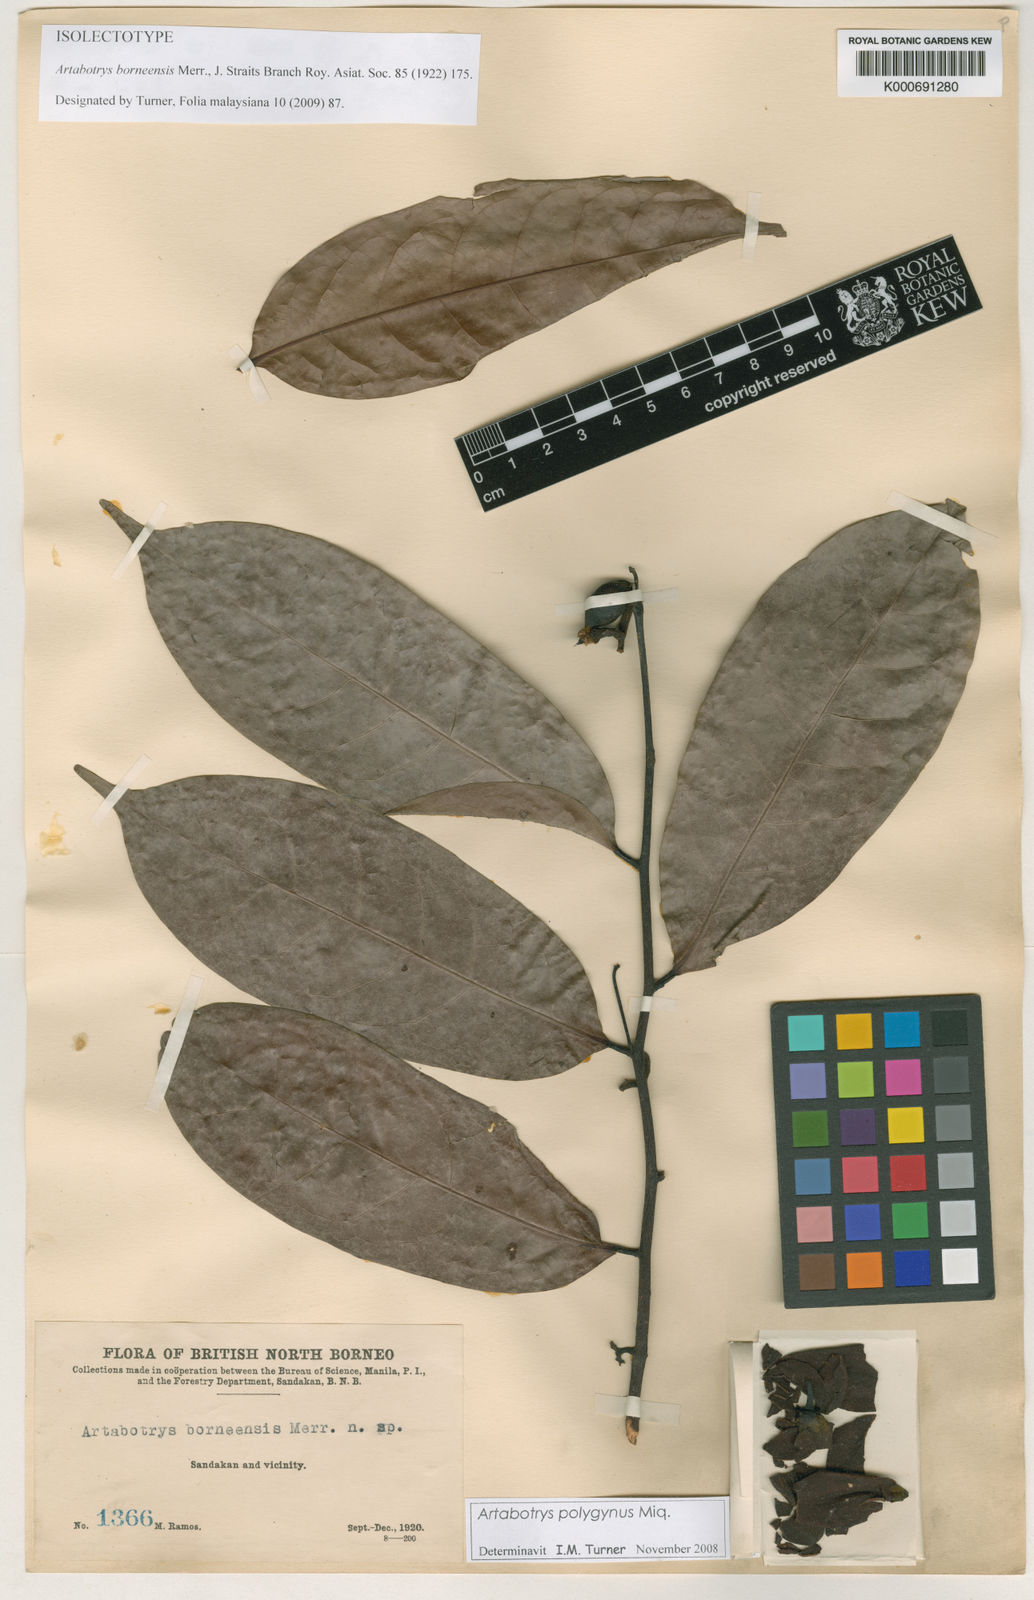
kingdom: Plantae
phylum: Tracheophyta
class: Magnoliopsida
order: Magnoliales
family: Annonaceae
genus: Artabotrys
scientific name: Artabotrys polygynus
